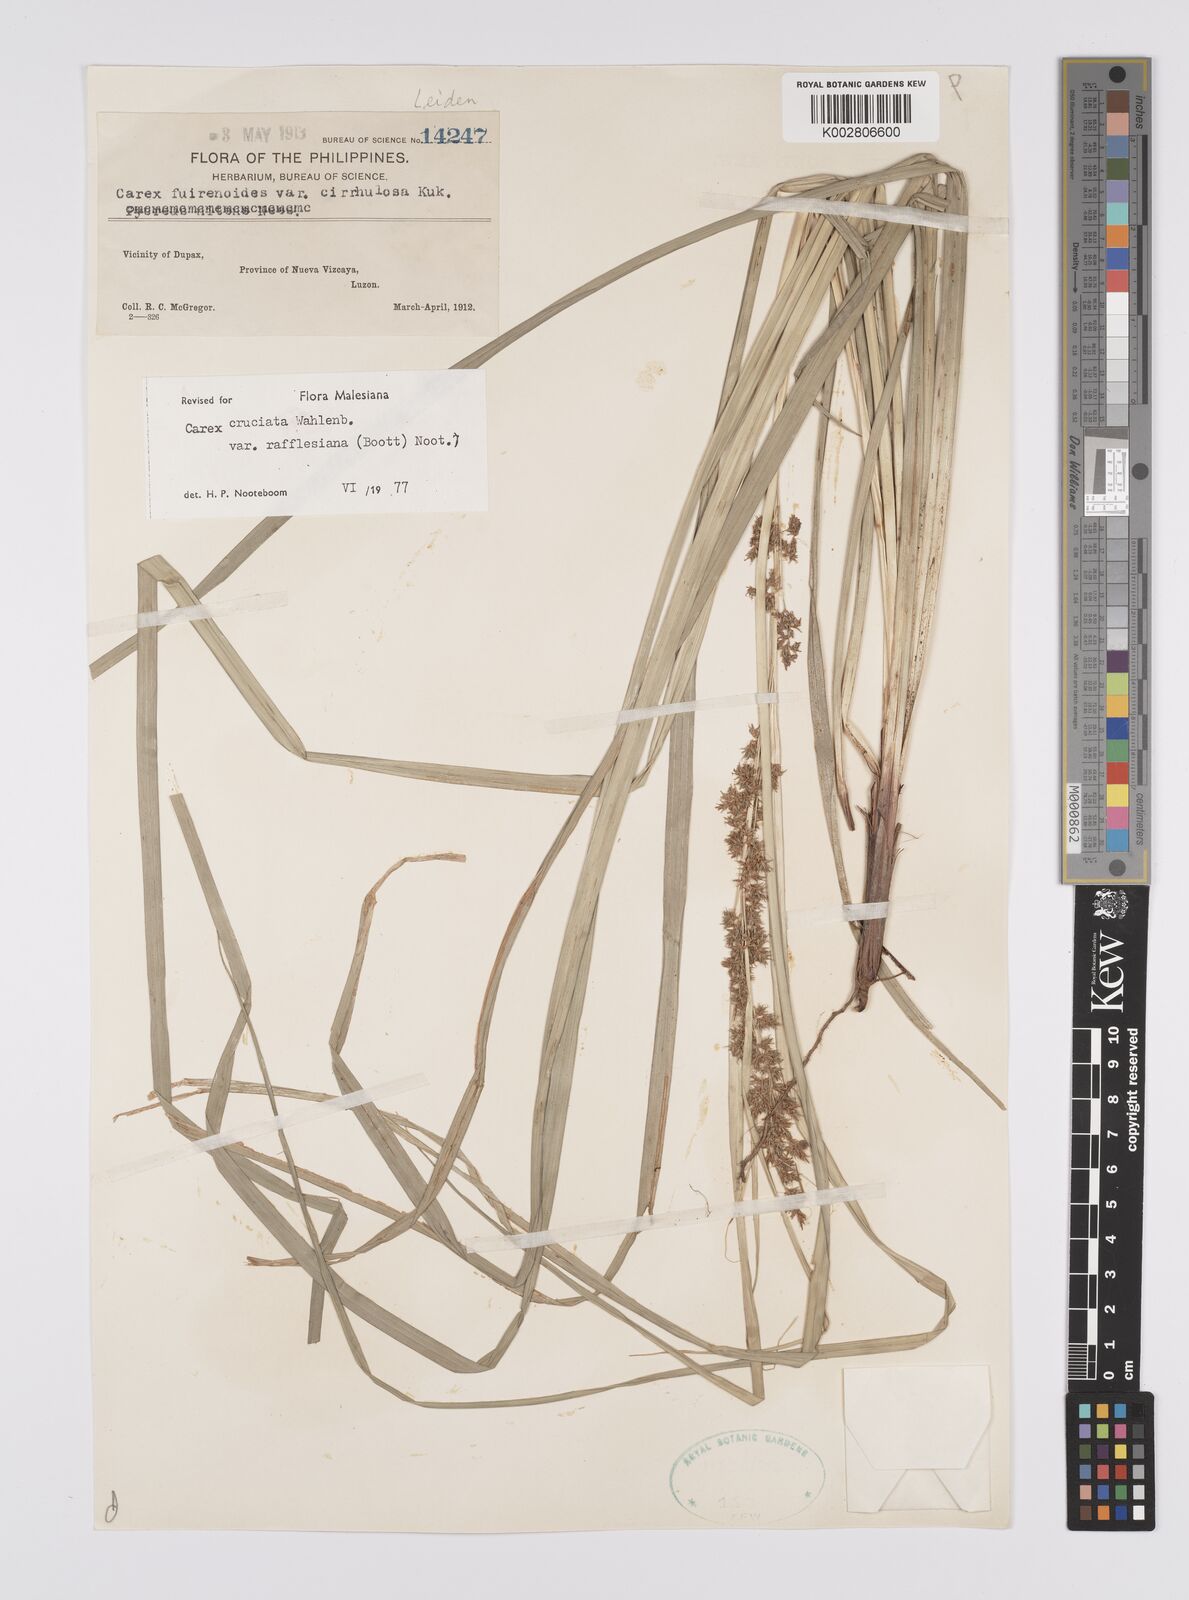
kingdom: Plantae
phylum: Tracheophyta
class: Liliopsida
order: Poales
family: Cyperaceae
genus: Carex
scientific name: Carex rafflesiana
